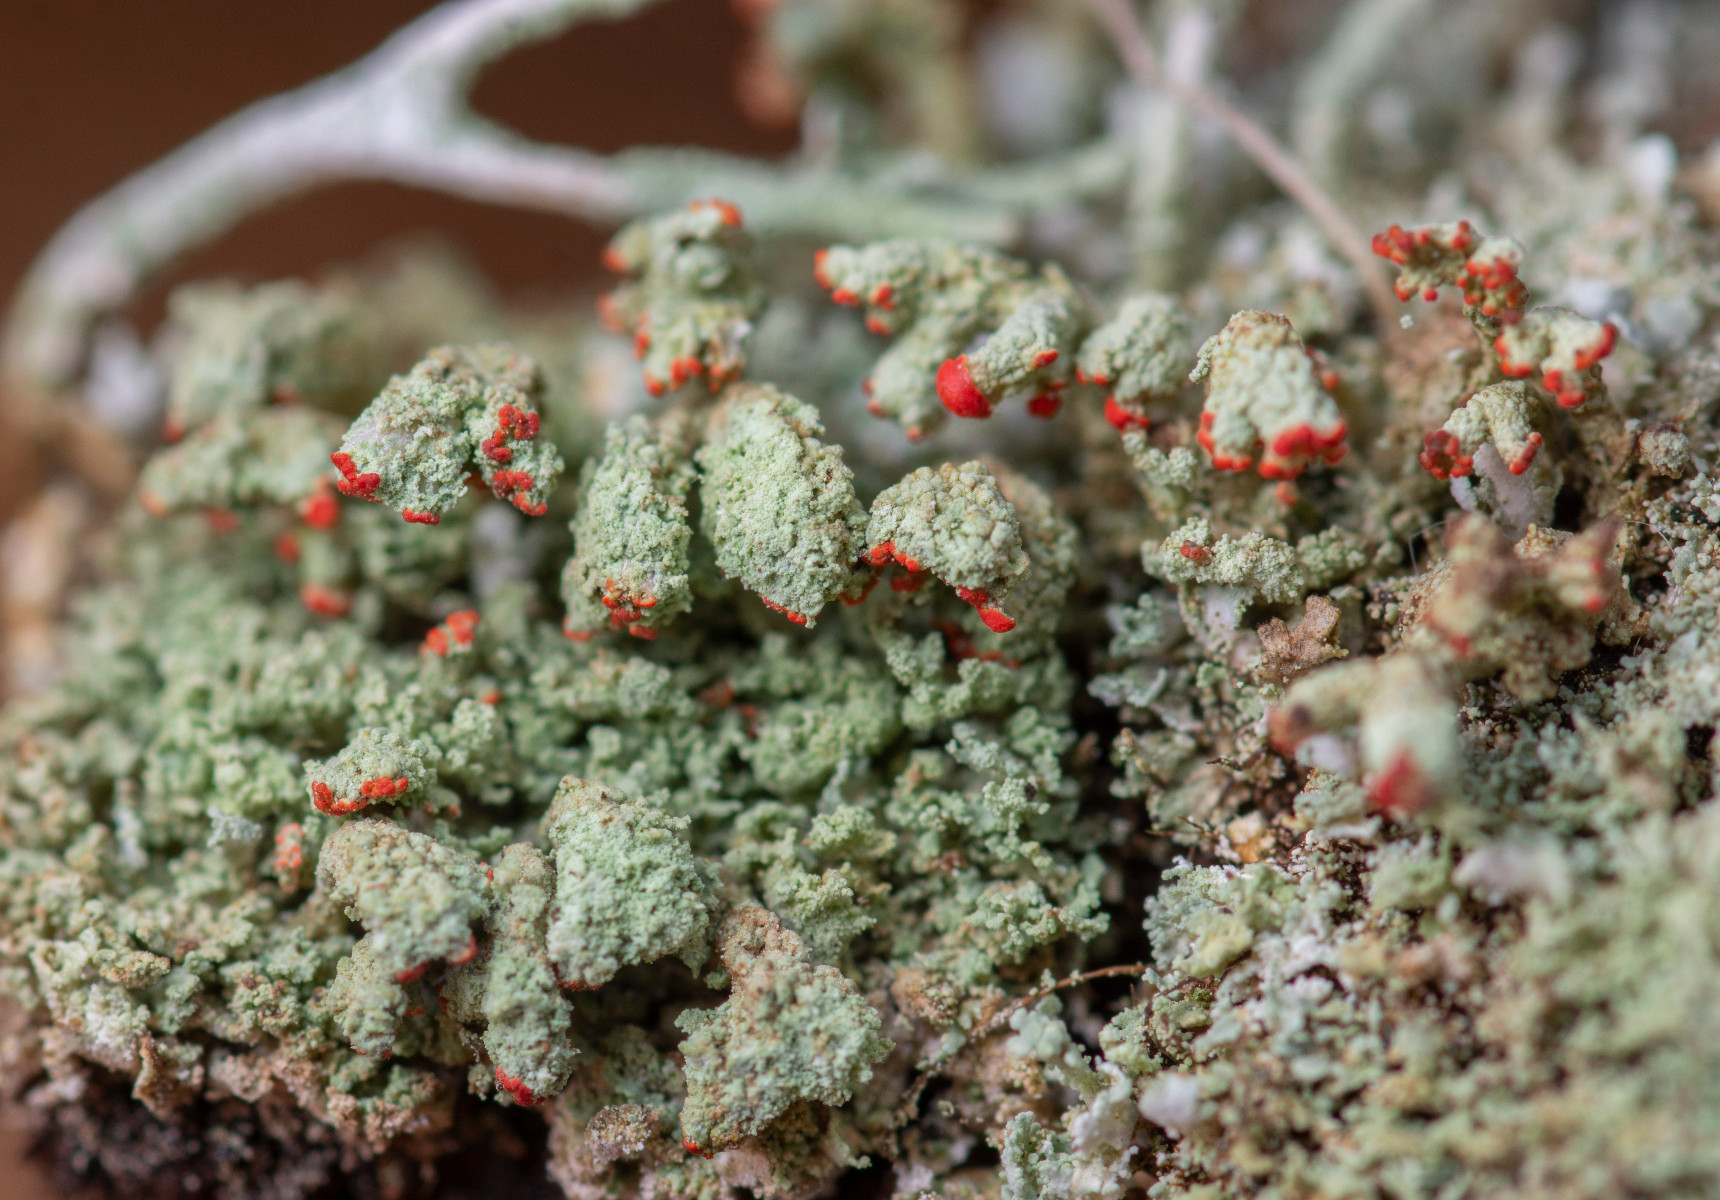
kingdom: Fungi
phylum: Ascomycota
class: Lecanoromycetes
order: Lecanorales
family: Cladoniaceae
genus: Cladonia
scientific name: Cladonia incrassata
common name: tørve-bægerlav
